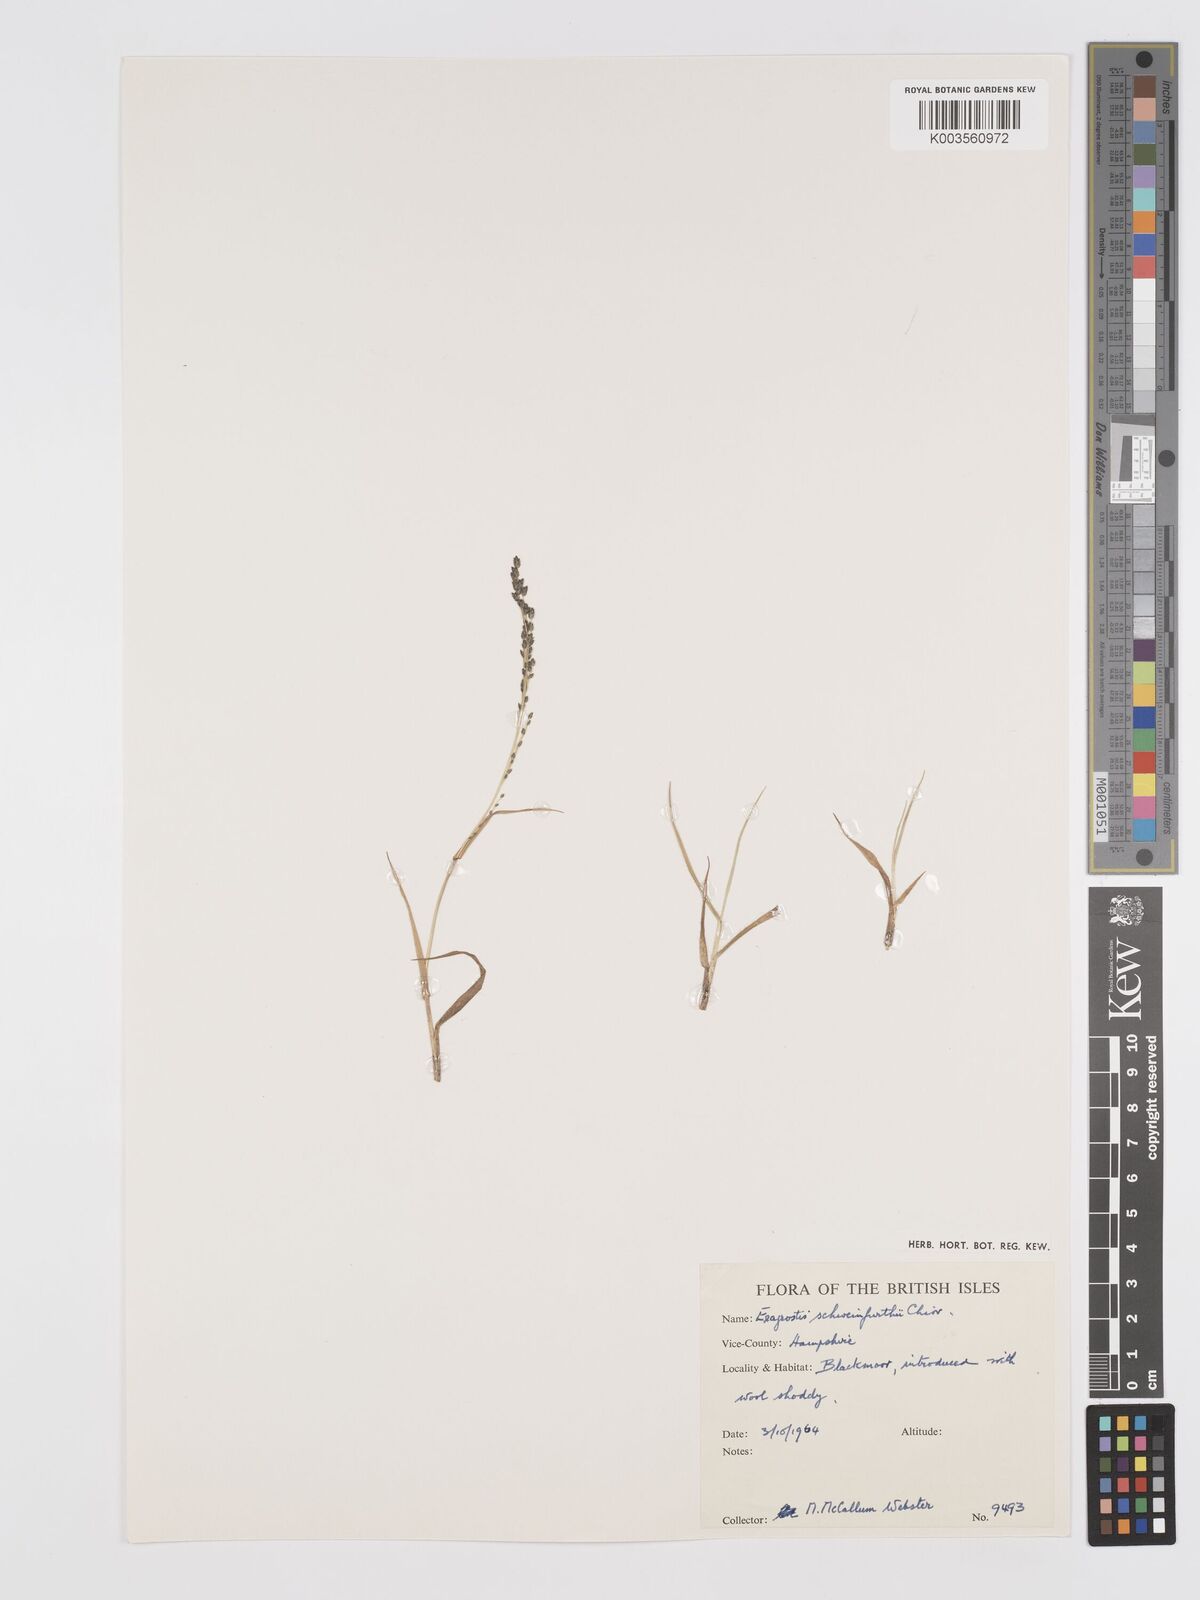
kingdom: Plantae
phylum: Tracheophyta
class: Liliopsida
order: Poales
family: Poaceae
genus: Eragrostis
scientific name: Eragrostis schweinfurthii
